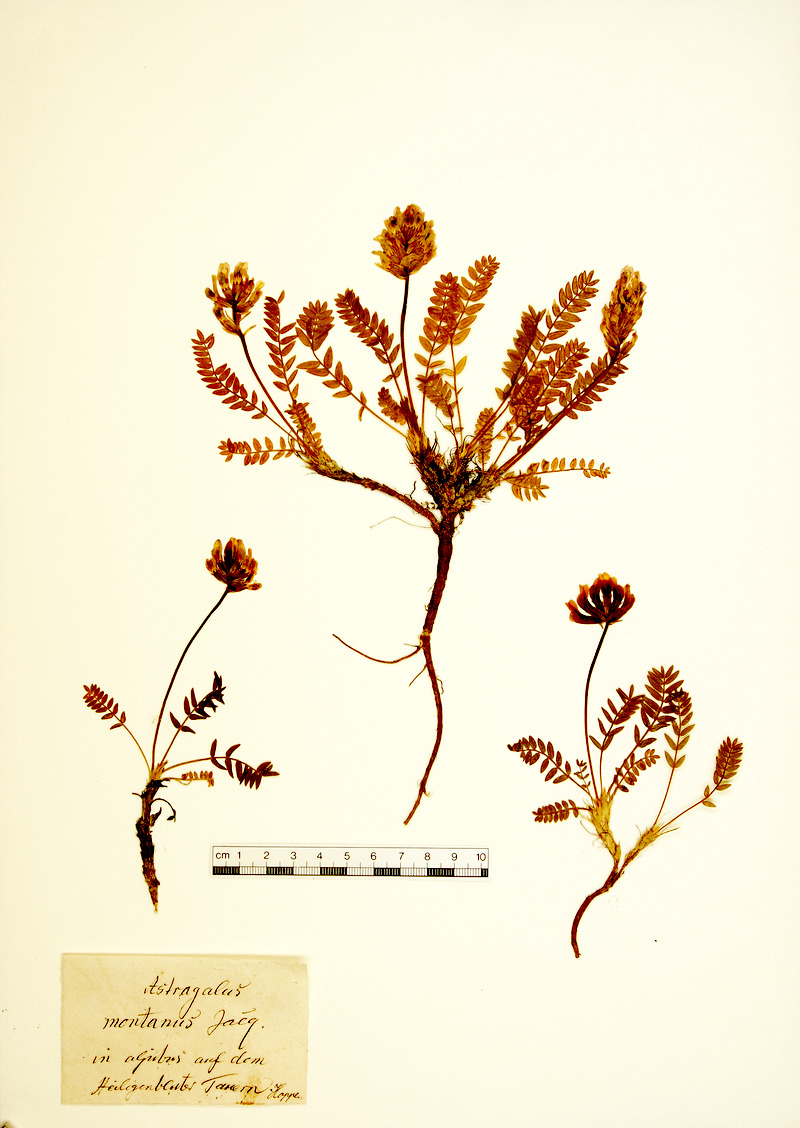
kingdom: Plantae
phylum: Tracheophyta
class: Magnoliopsida
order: Fabales
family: Fabaceae
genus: Oxytropis
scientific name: Oxytropis montana
